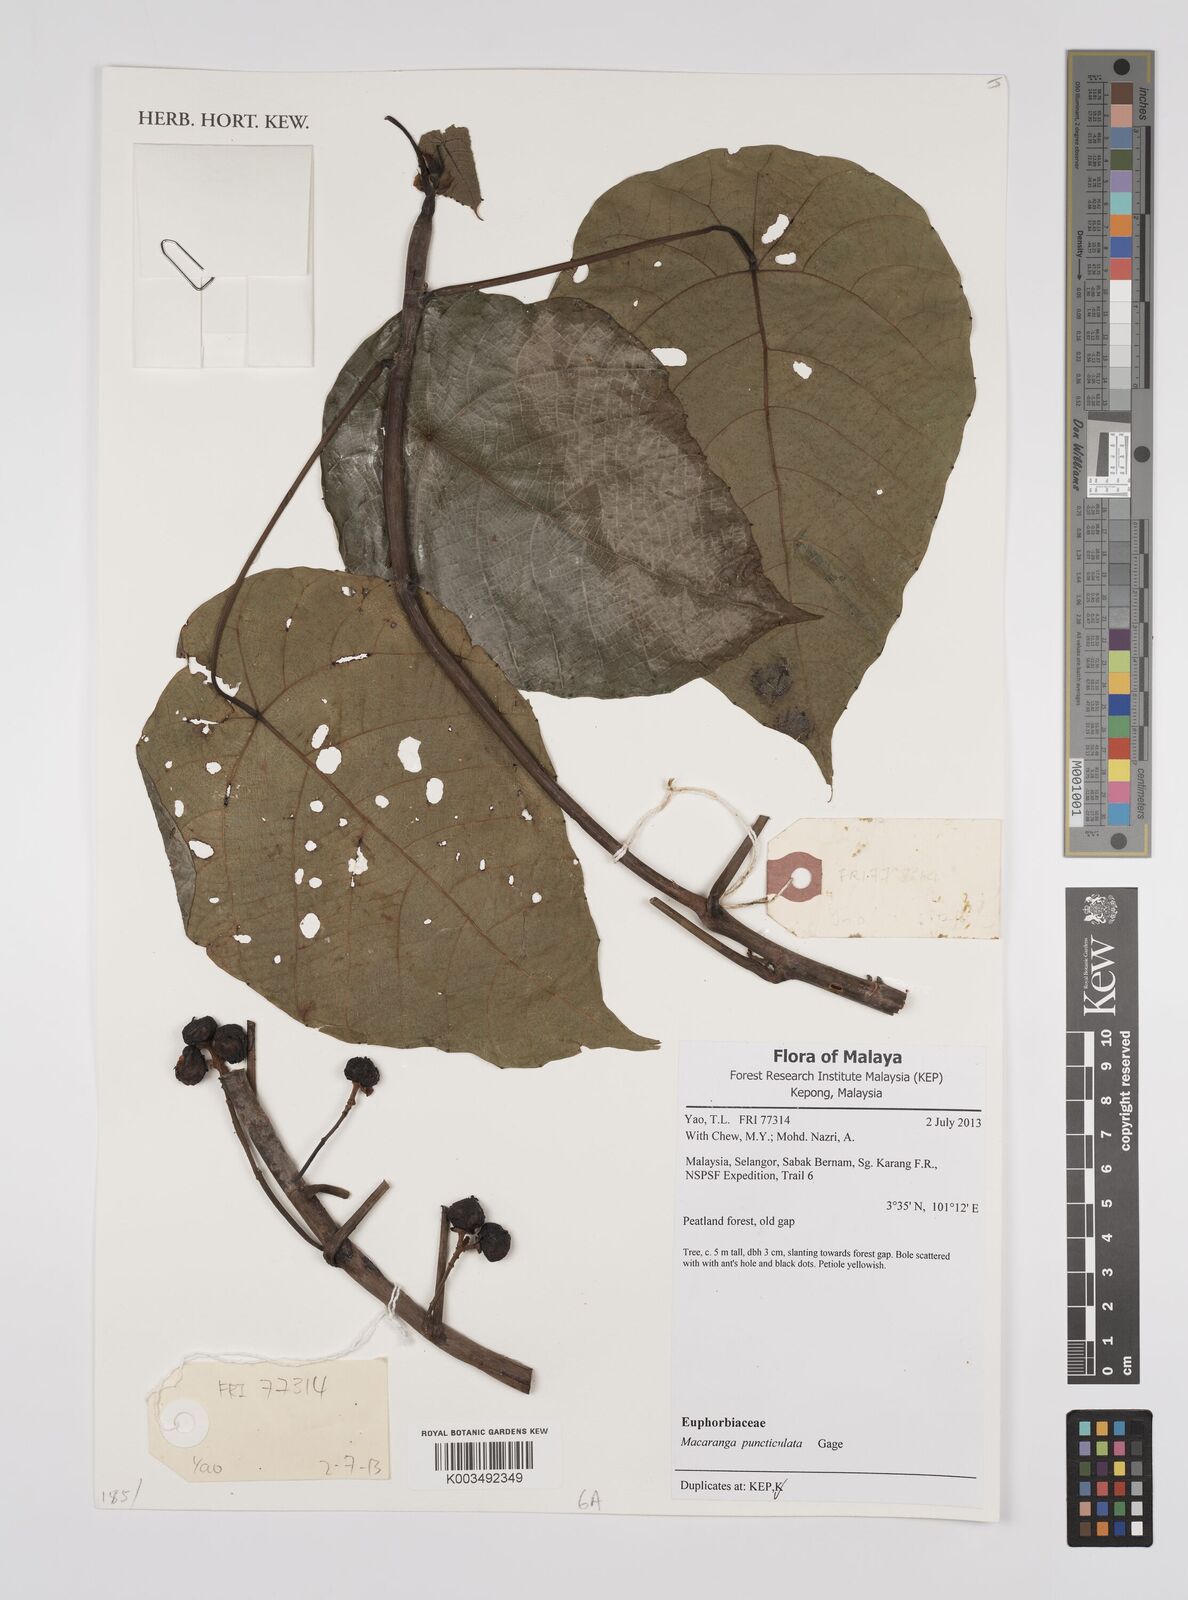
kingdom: Plantae
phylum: Tracheophyta
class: Magnoliopsida
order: Malpighiales
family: Euphorbiaceae
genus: Macaranga
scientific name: Macaranga puncticulata
